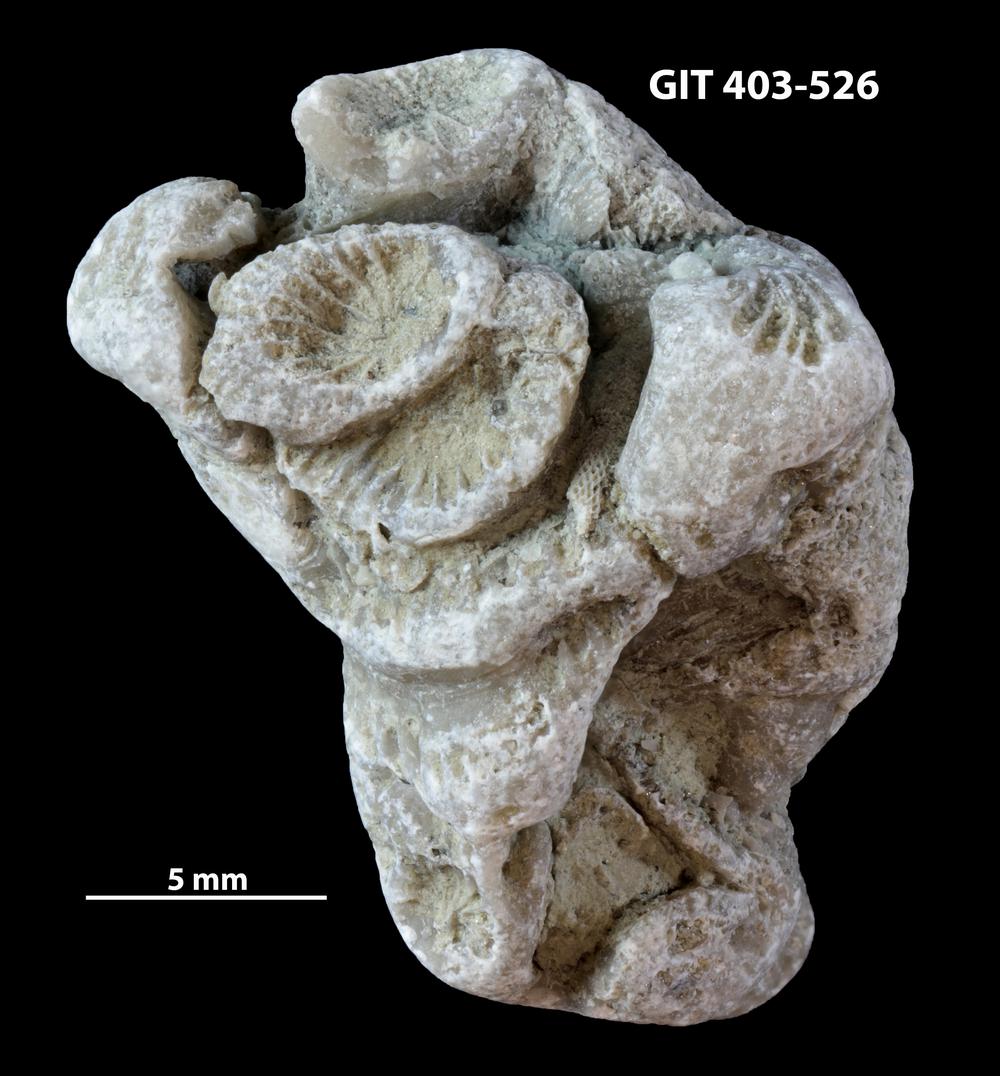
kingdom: Animalia
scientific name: Animalia
